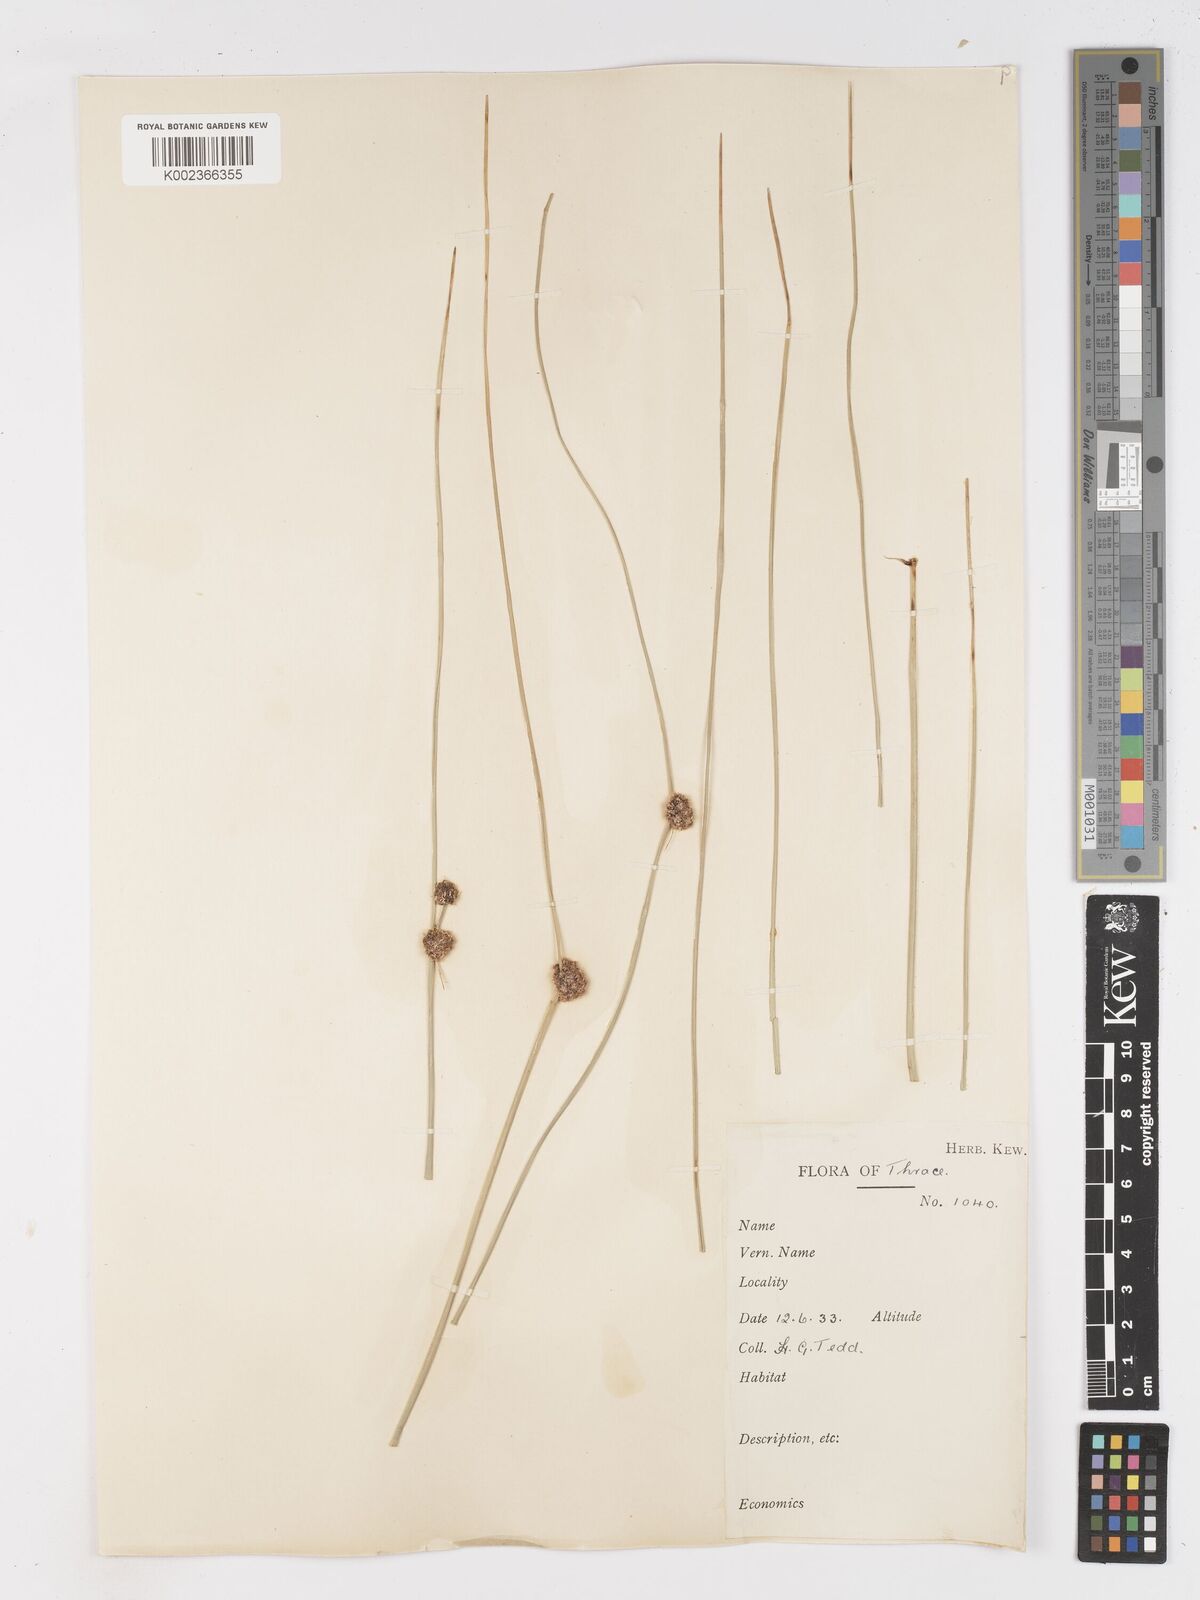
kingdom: Plantae
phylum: Tracheophyta
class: Liliopsida
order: Poales
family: Cyperaceae
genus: Scirpoides
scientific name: Scirpoides holoschoenus
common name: Round-headed club-rush
